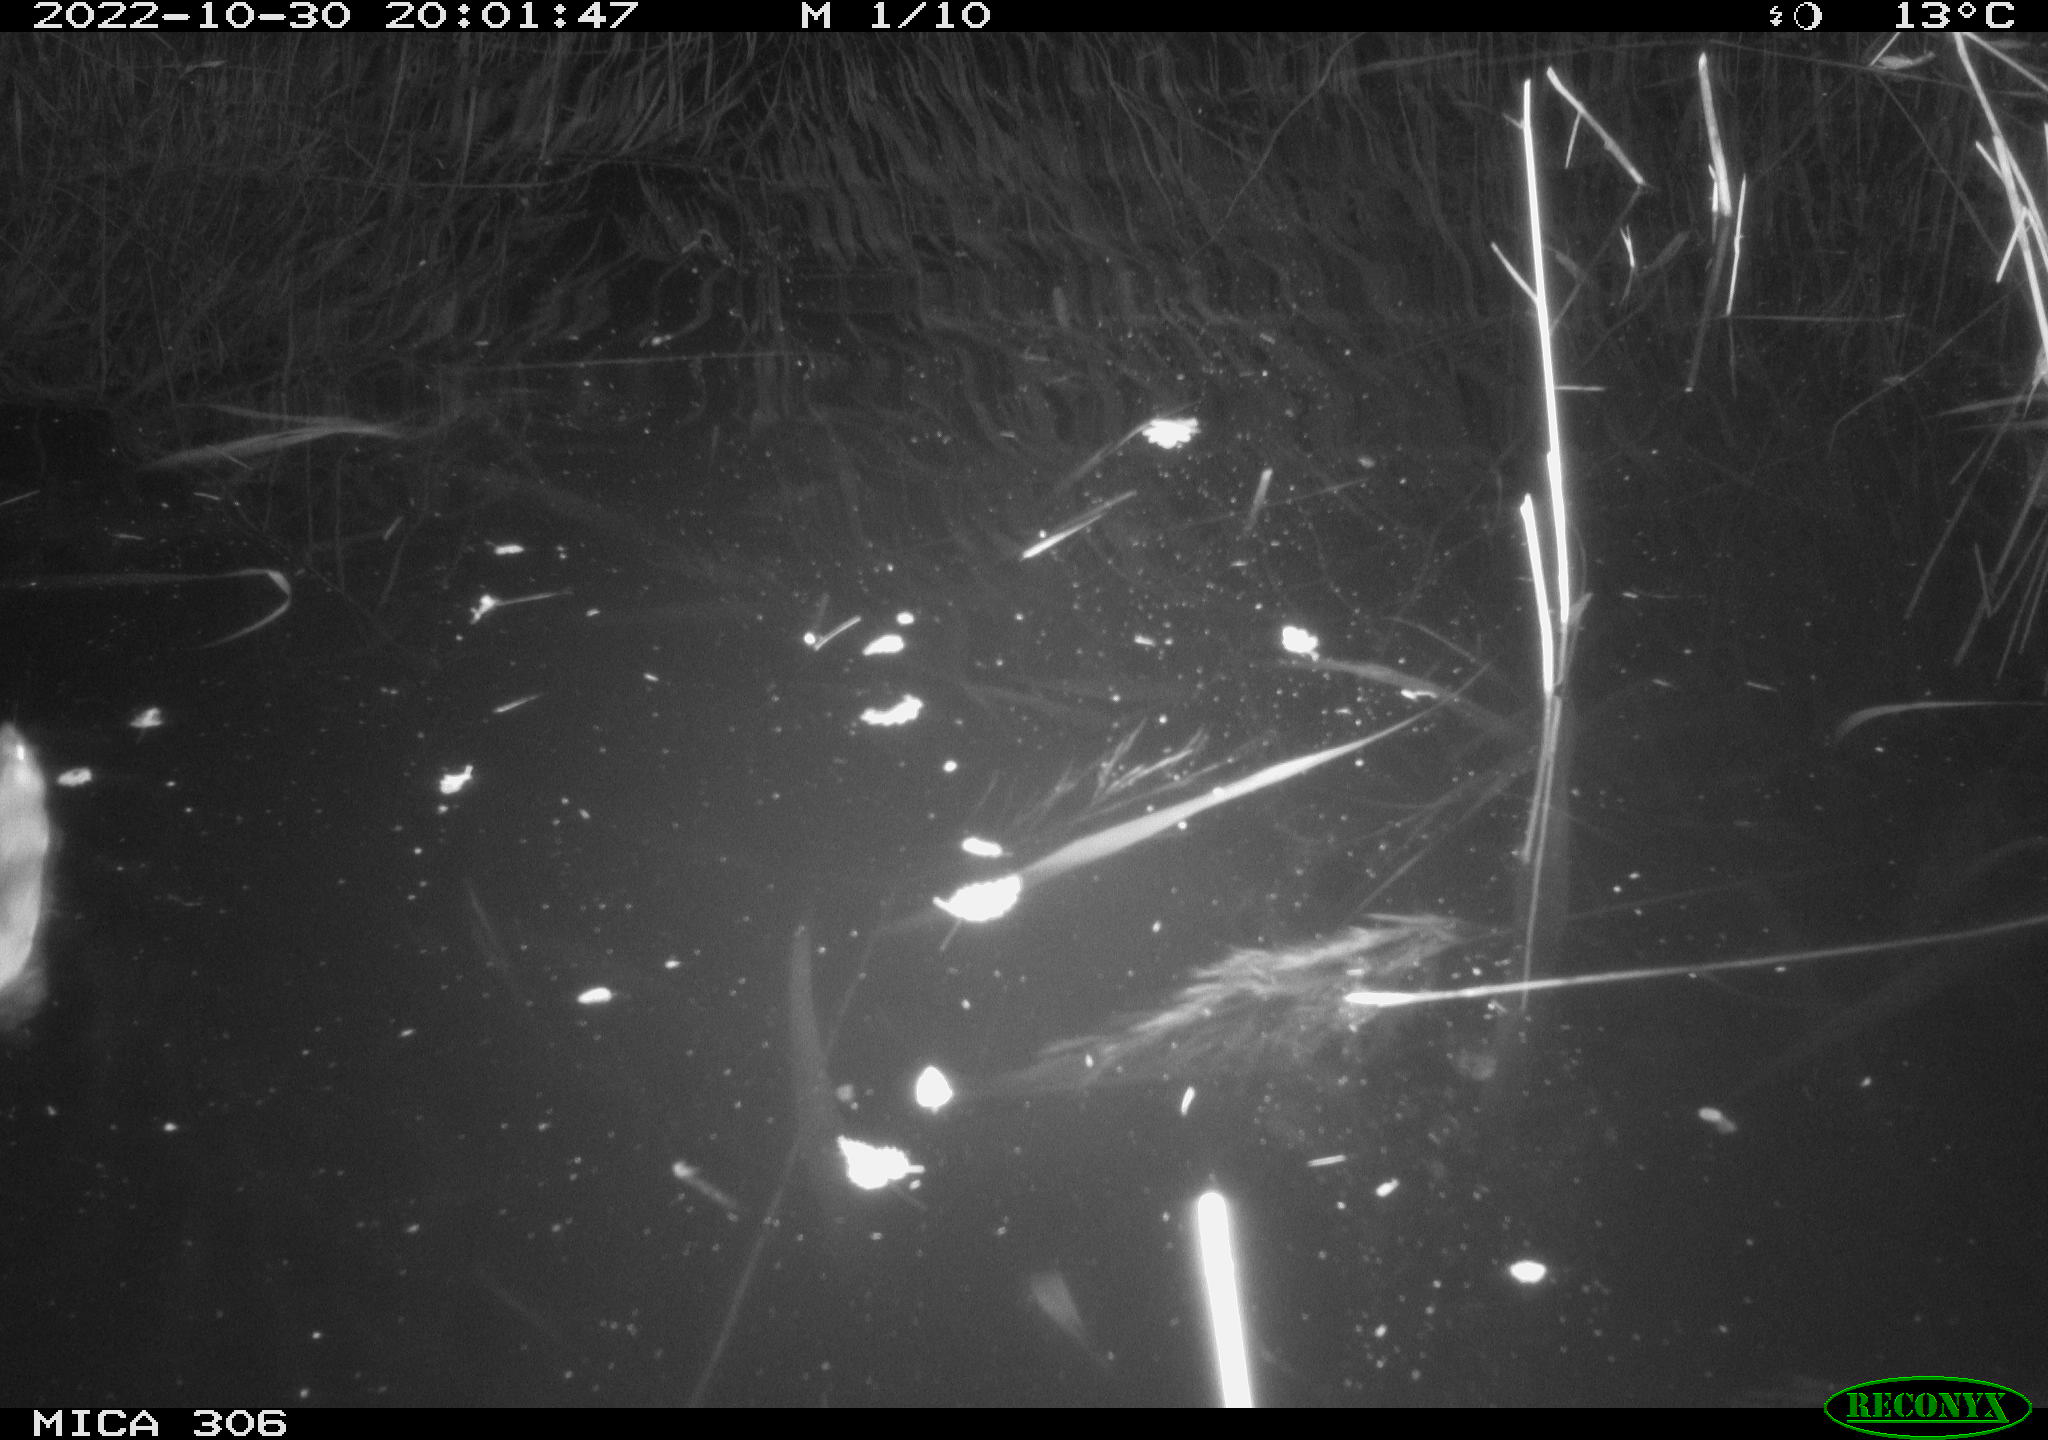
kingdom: Animalia
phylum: Chordata
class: Mammalia
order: Rodentia
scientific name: Rodentia
